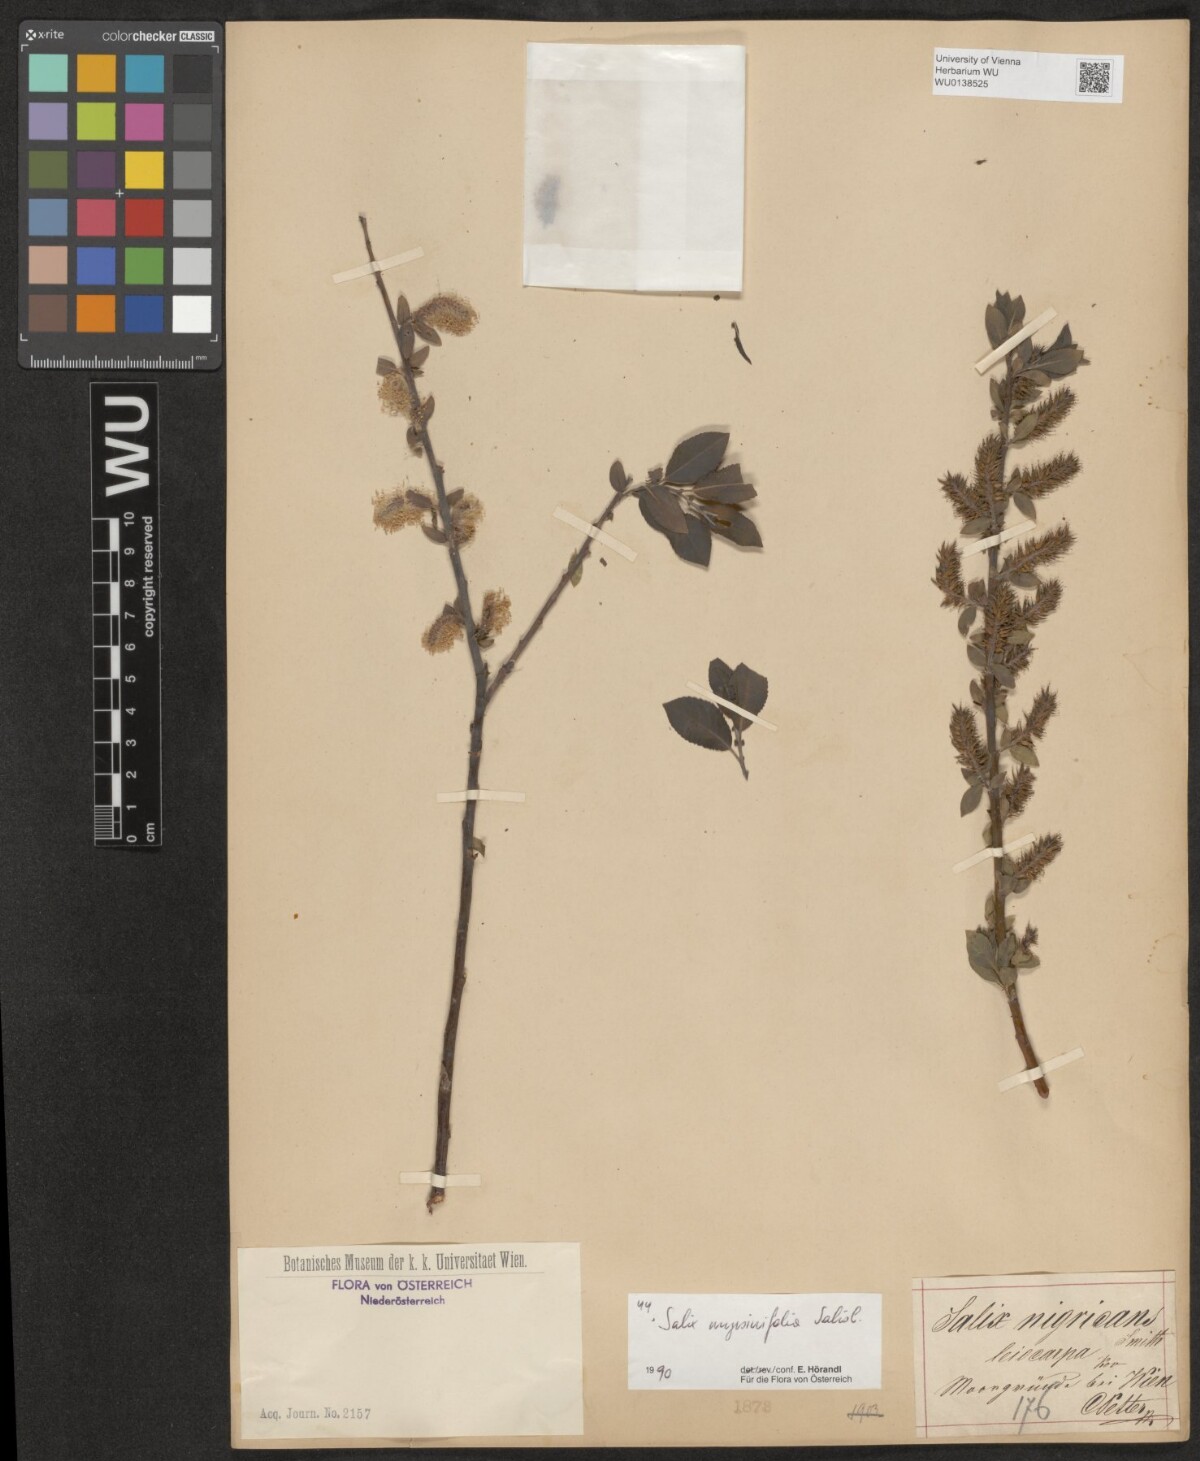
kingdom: Plantae
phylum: Tracheophyta
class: Magnoliopsida
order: Malpighiales
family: Salicaceae
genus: Salix
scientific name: Salix myrsinifolia
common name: Dark-leaved willow
